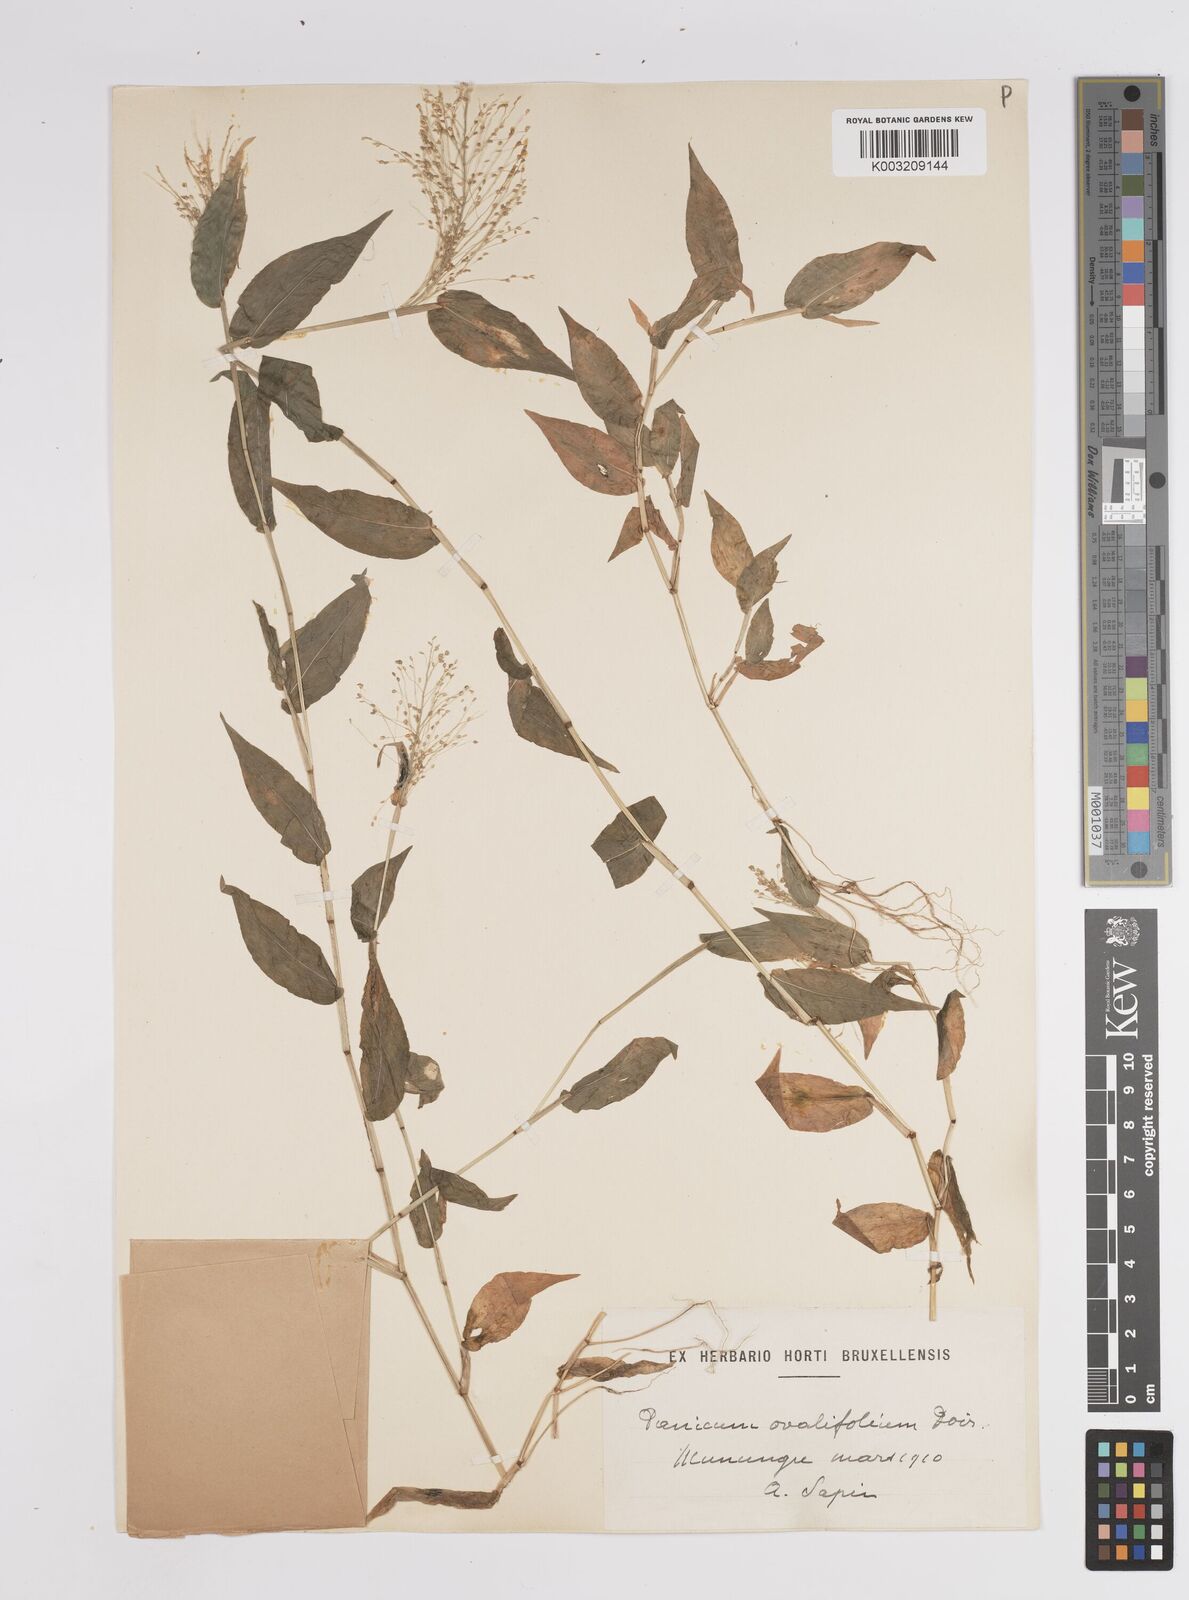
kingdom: Plantae
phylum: Tracheophyta
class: Liliopsida
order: Poales
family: Poaceae
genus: Panicum
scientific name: Panicum brevifolium
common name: Shortleaf panic grass
